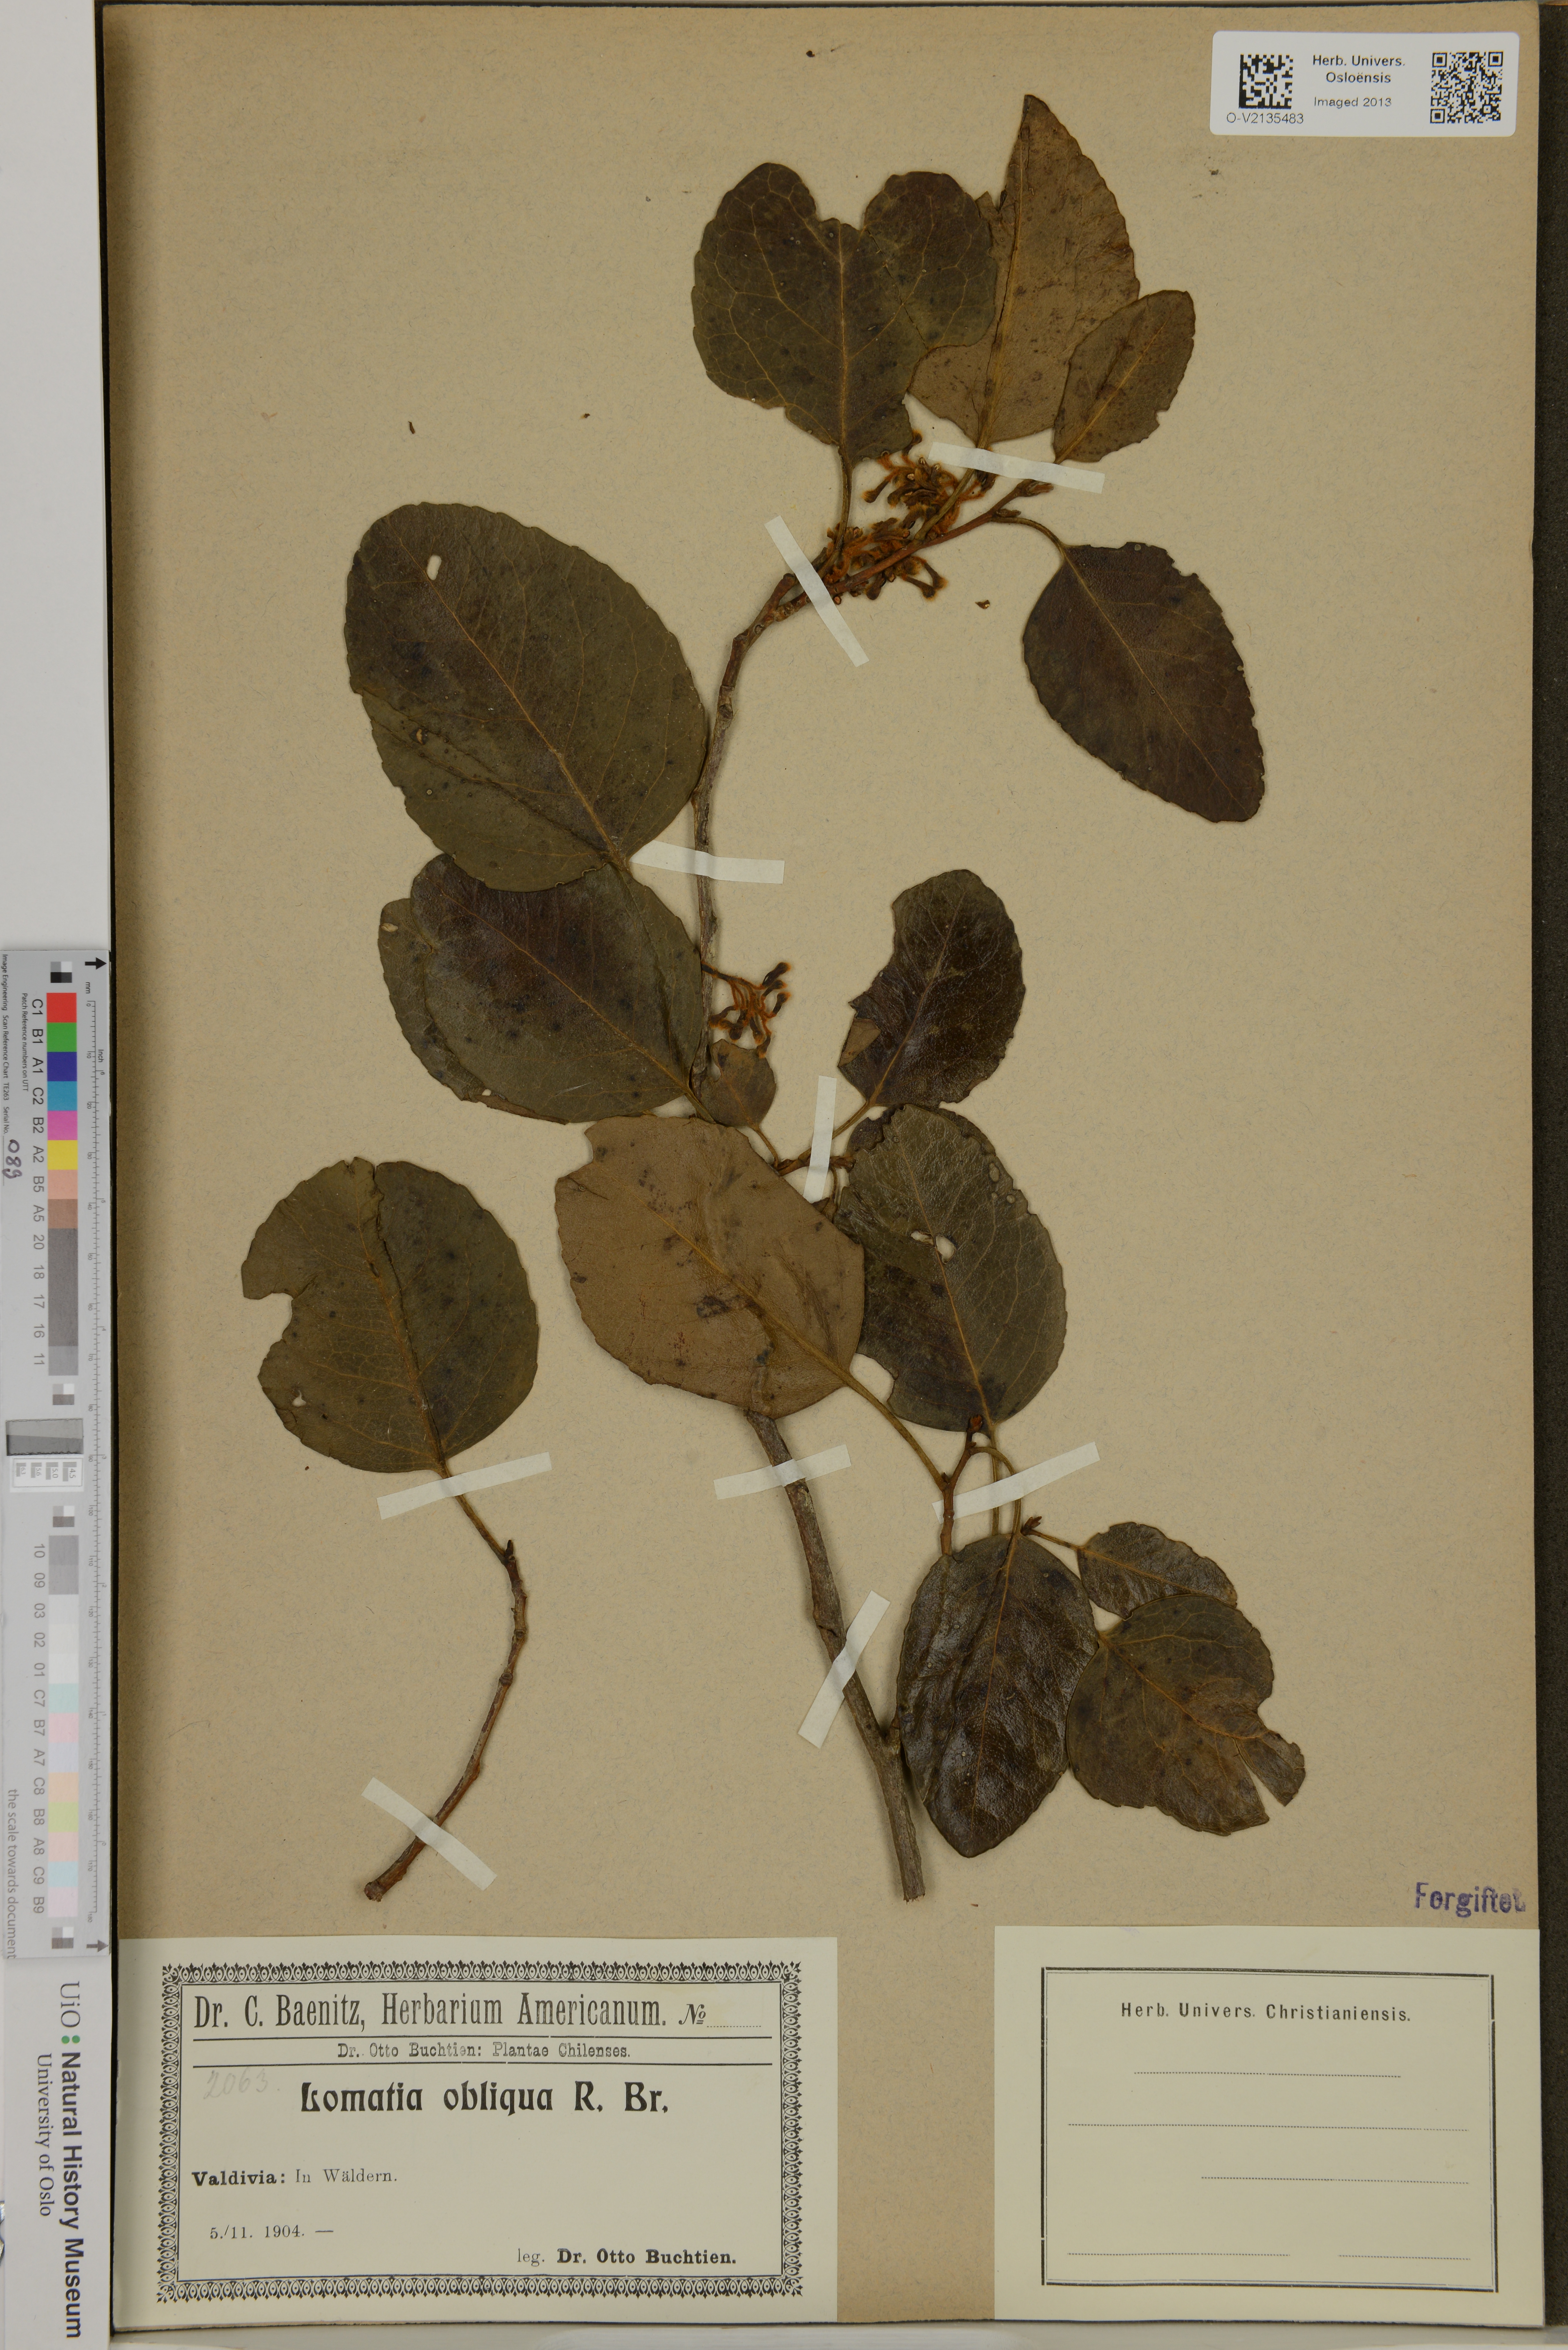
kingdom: Plantae
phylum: Tracheophyta
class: Magnoliopsida
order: Proteales
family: Proteaceae
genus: Lomatia
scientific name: Lomatia hirsuta
